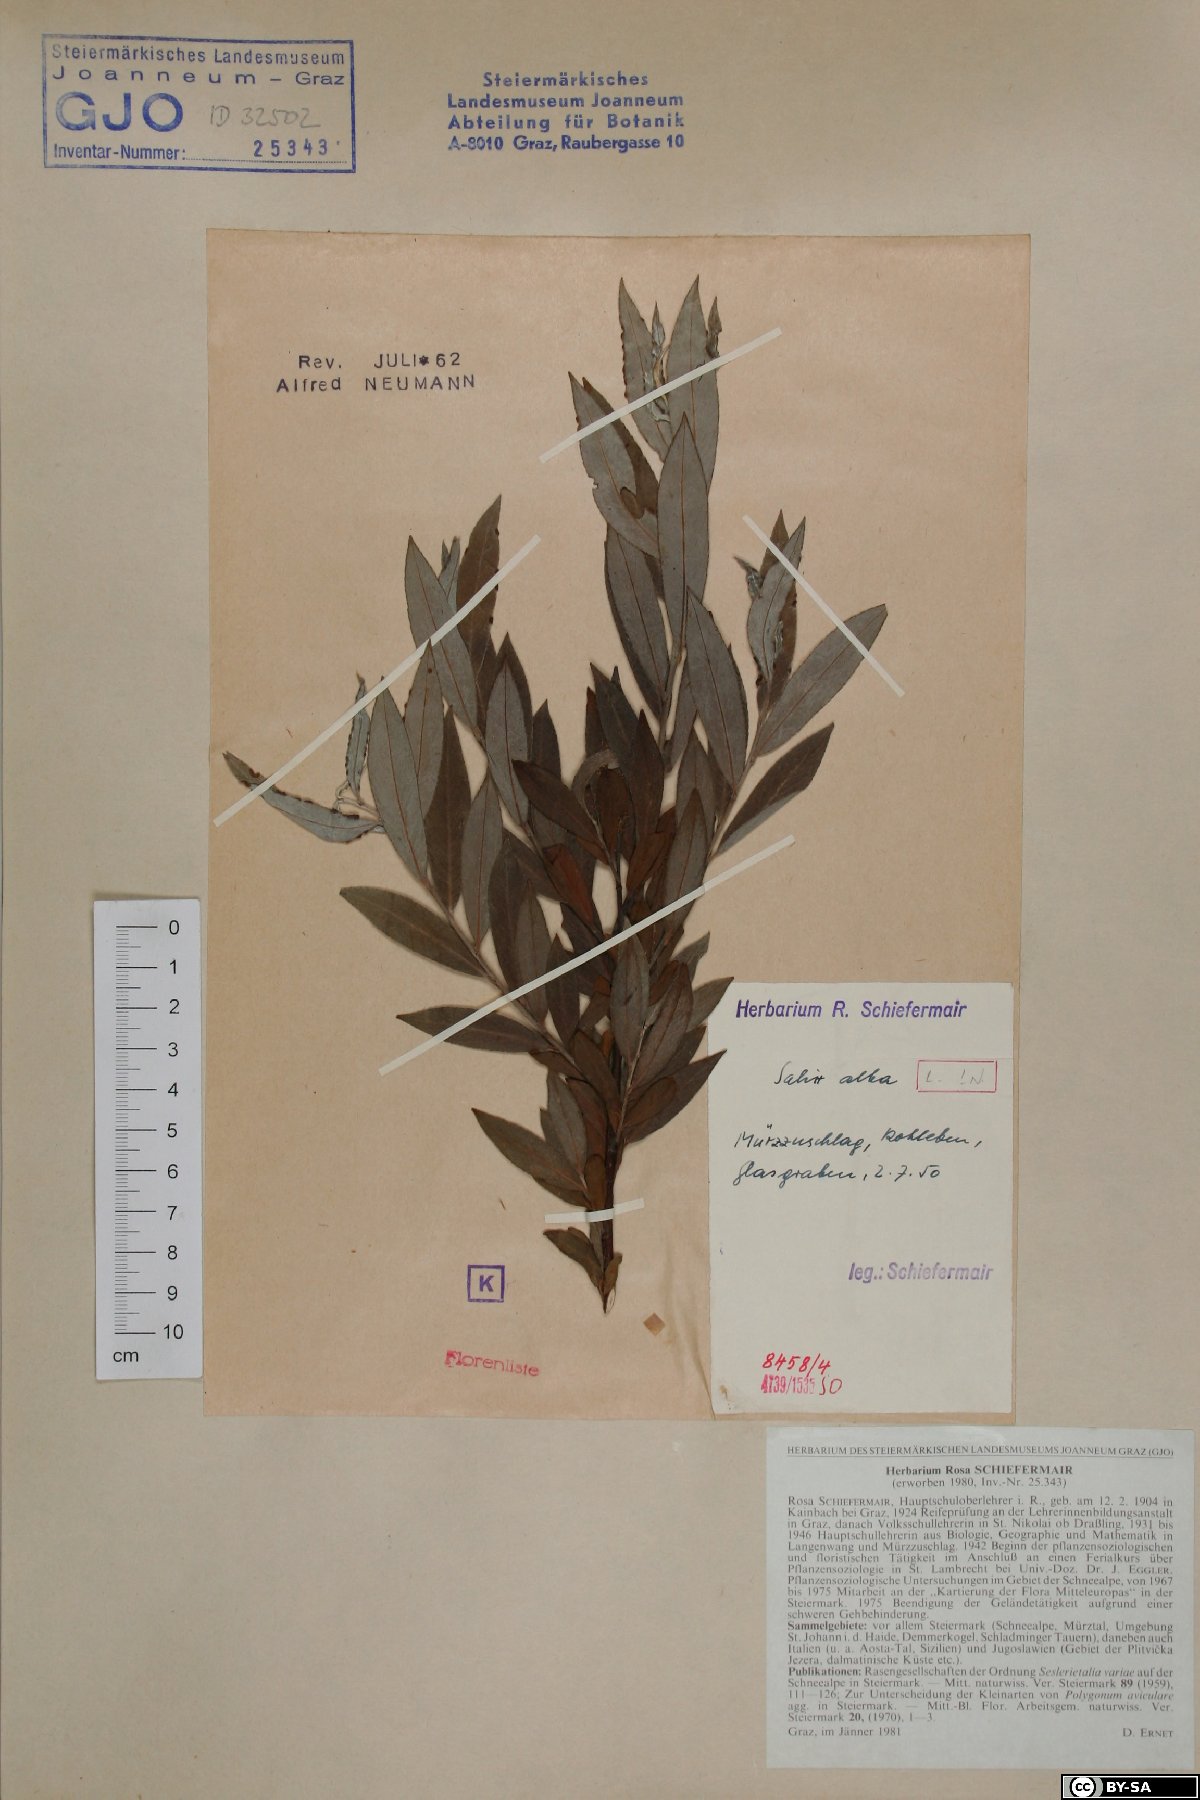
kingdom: Plantae
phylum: Tracheophyta
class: Magnoliopsida
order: Malpighiales
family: Salicaceae
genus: Salix
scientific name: Salix alba
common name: White willow
